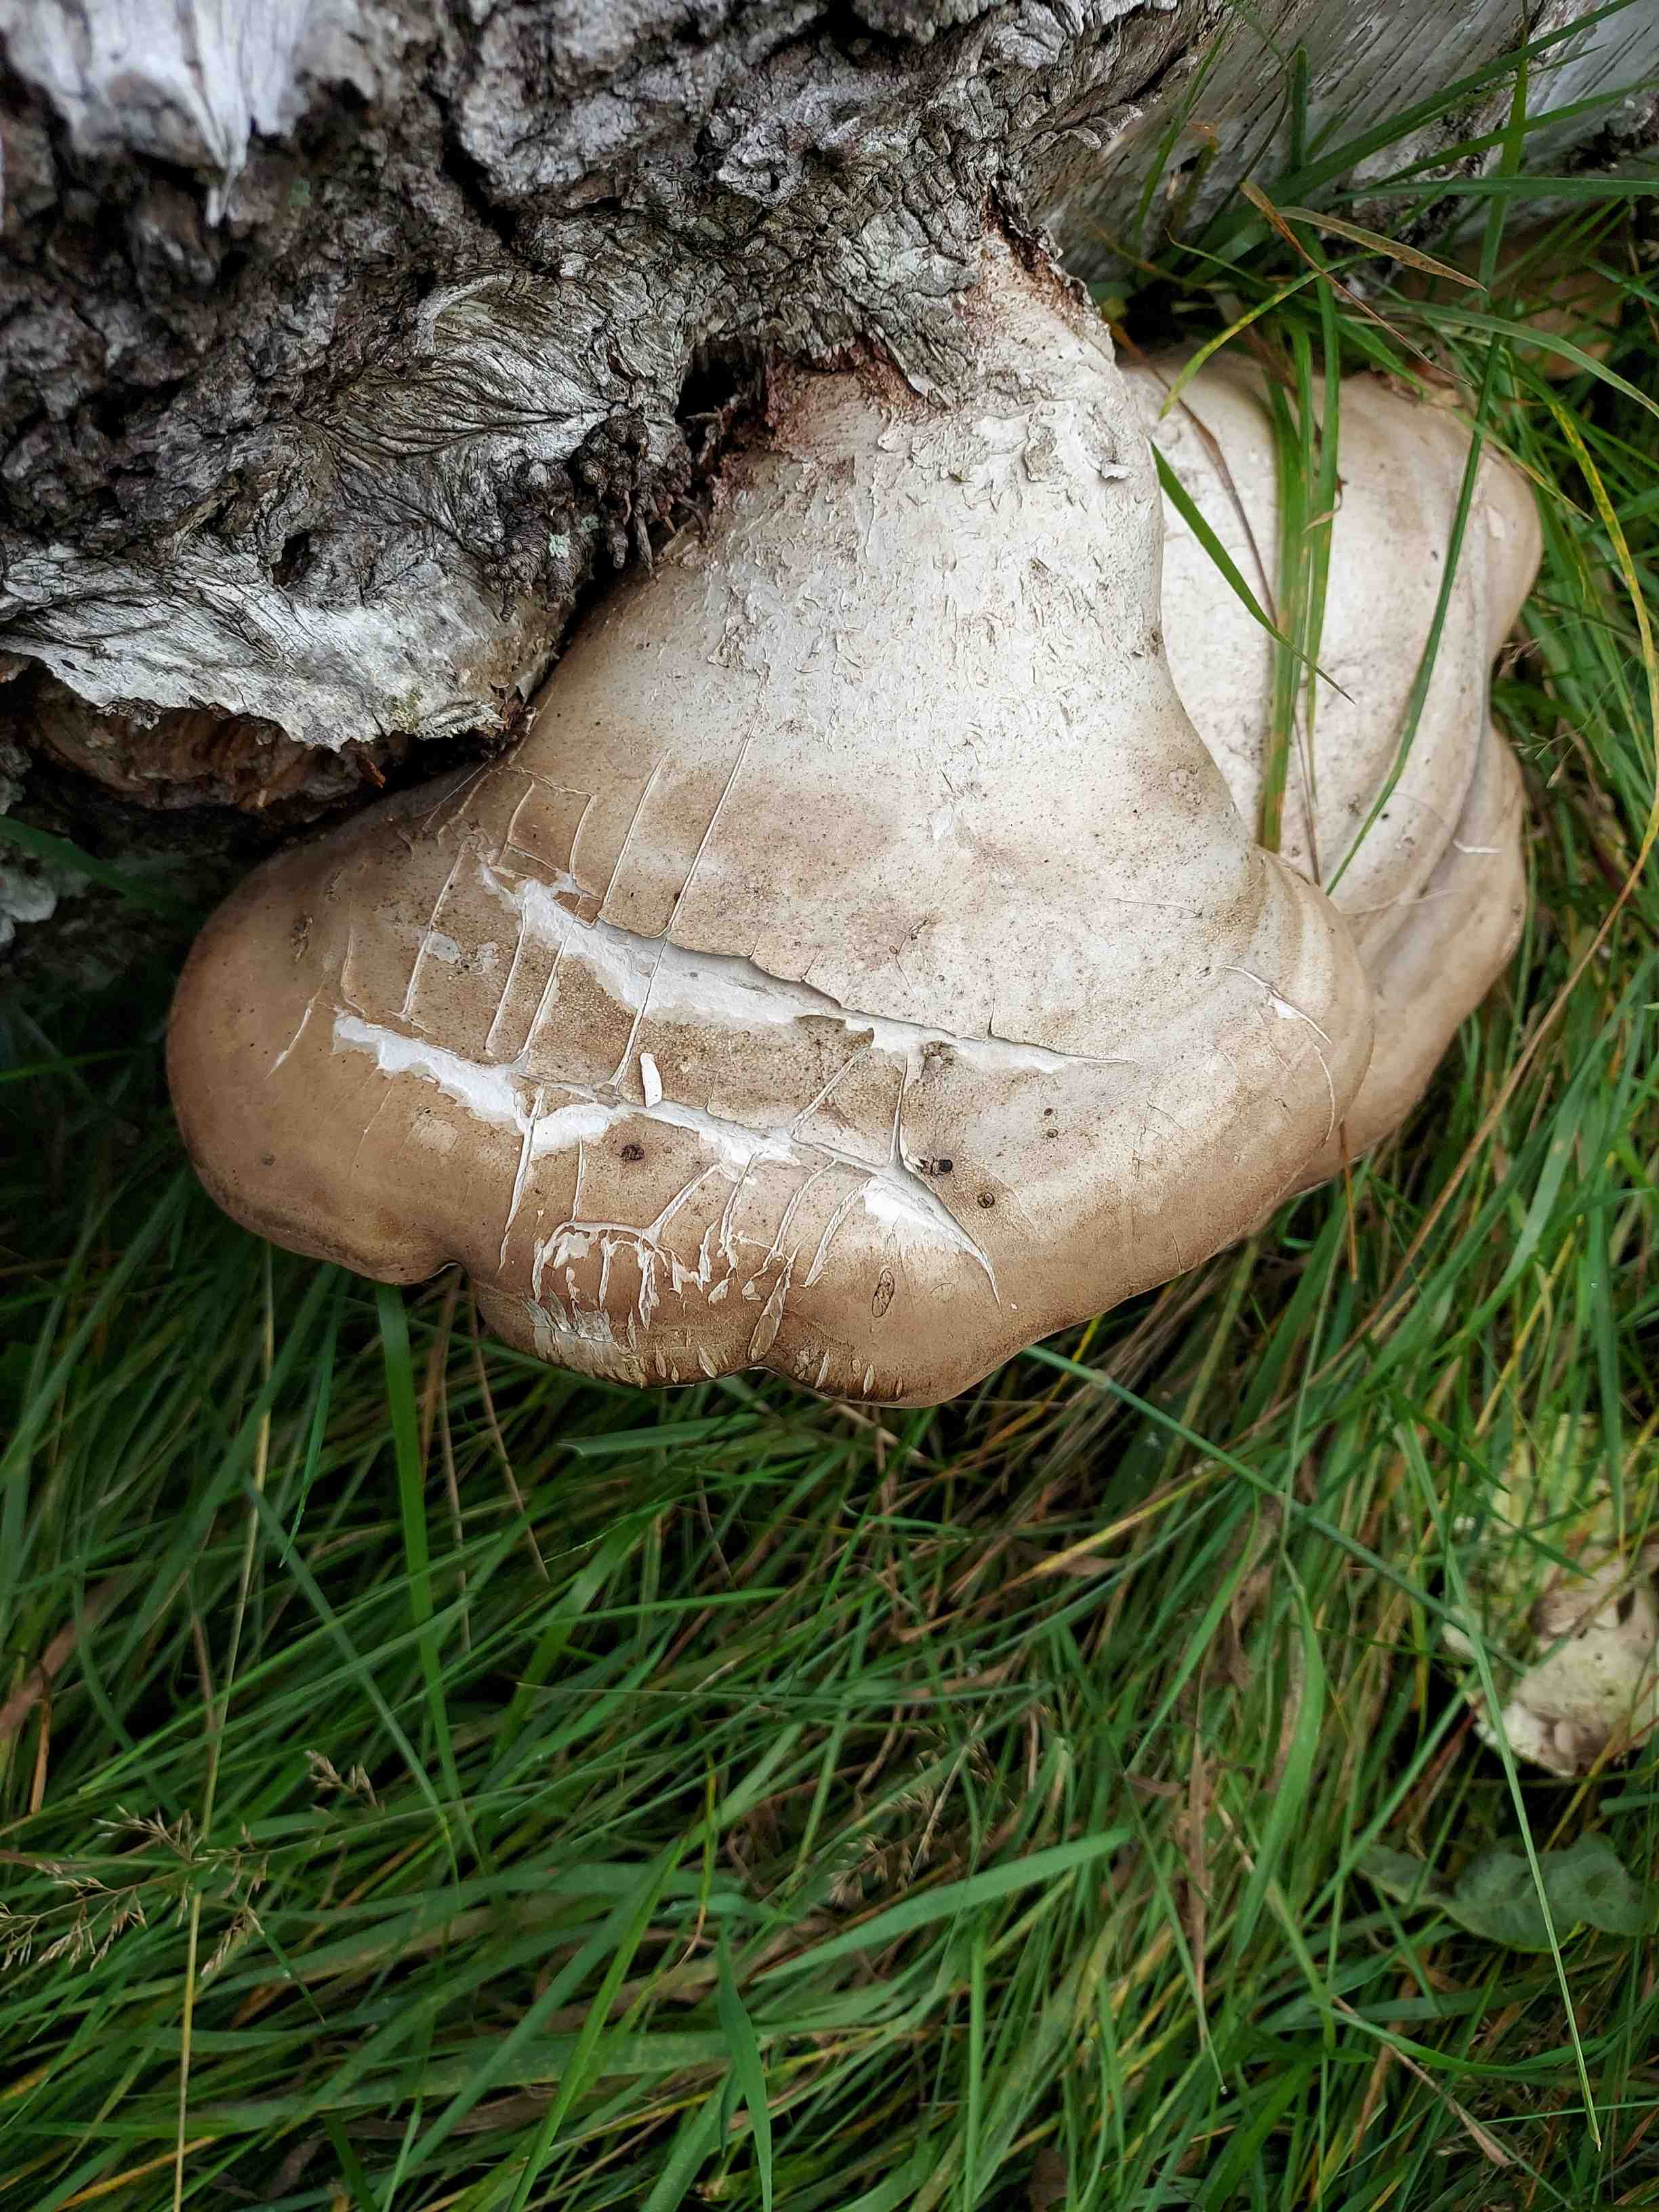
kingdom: Fungi
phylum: Basidiomycota
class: Agaricomycetes
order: Polyporales
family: Fomitopsidaceae
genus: Fomitopsis
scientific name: Fomitopsis betulina
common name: birkeporesvamp
